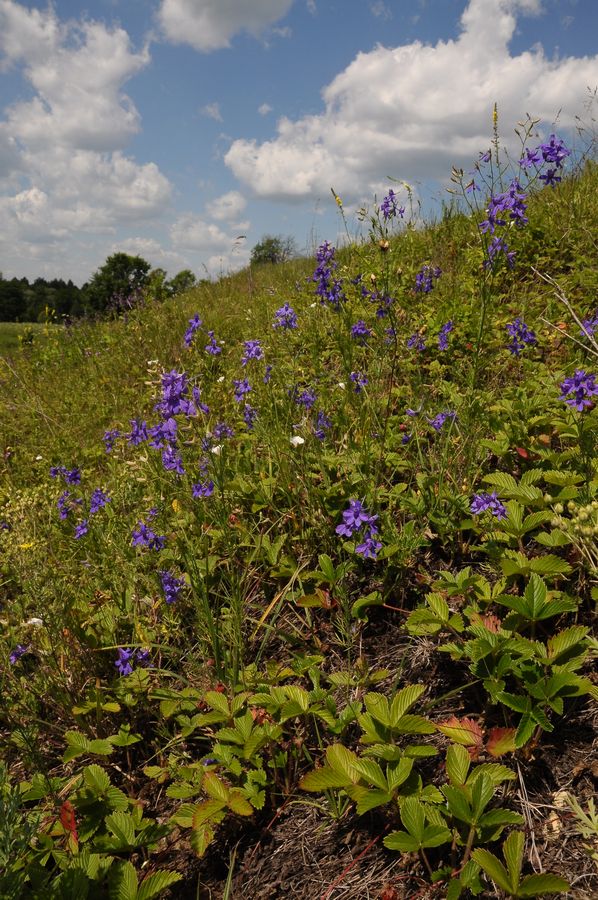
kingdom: Plantae
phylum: Tracheophyta
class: Magnoliopsida
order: Ranunculales
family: Ranunculaceae
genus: Delphinium
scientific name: Delphinium consolida
